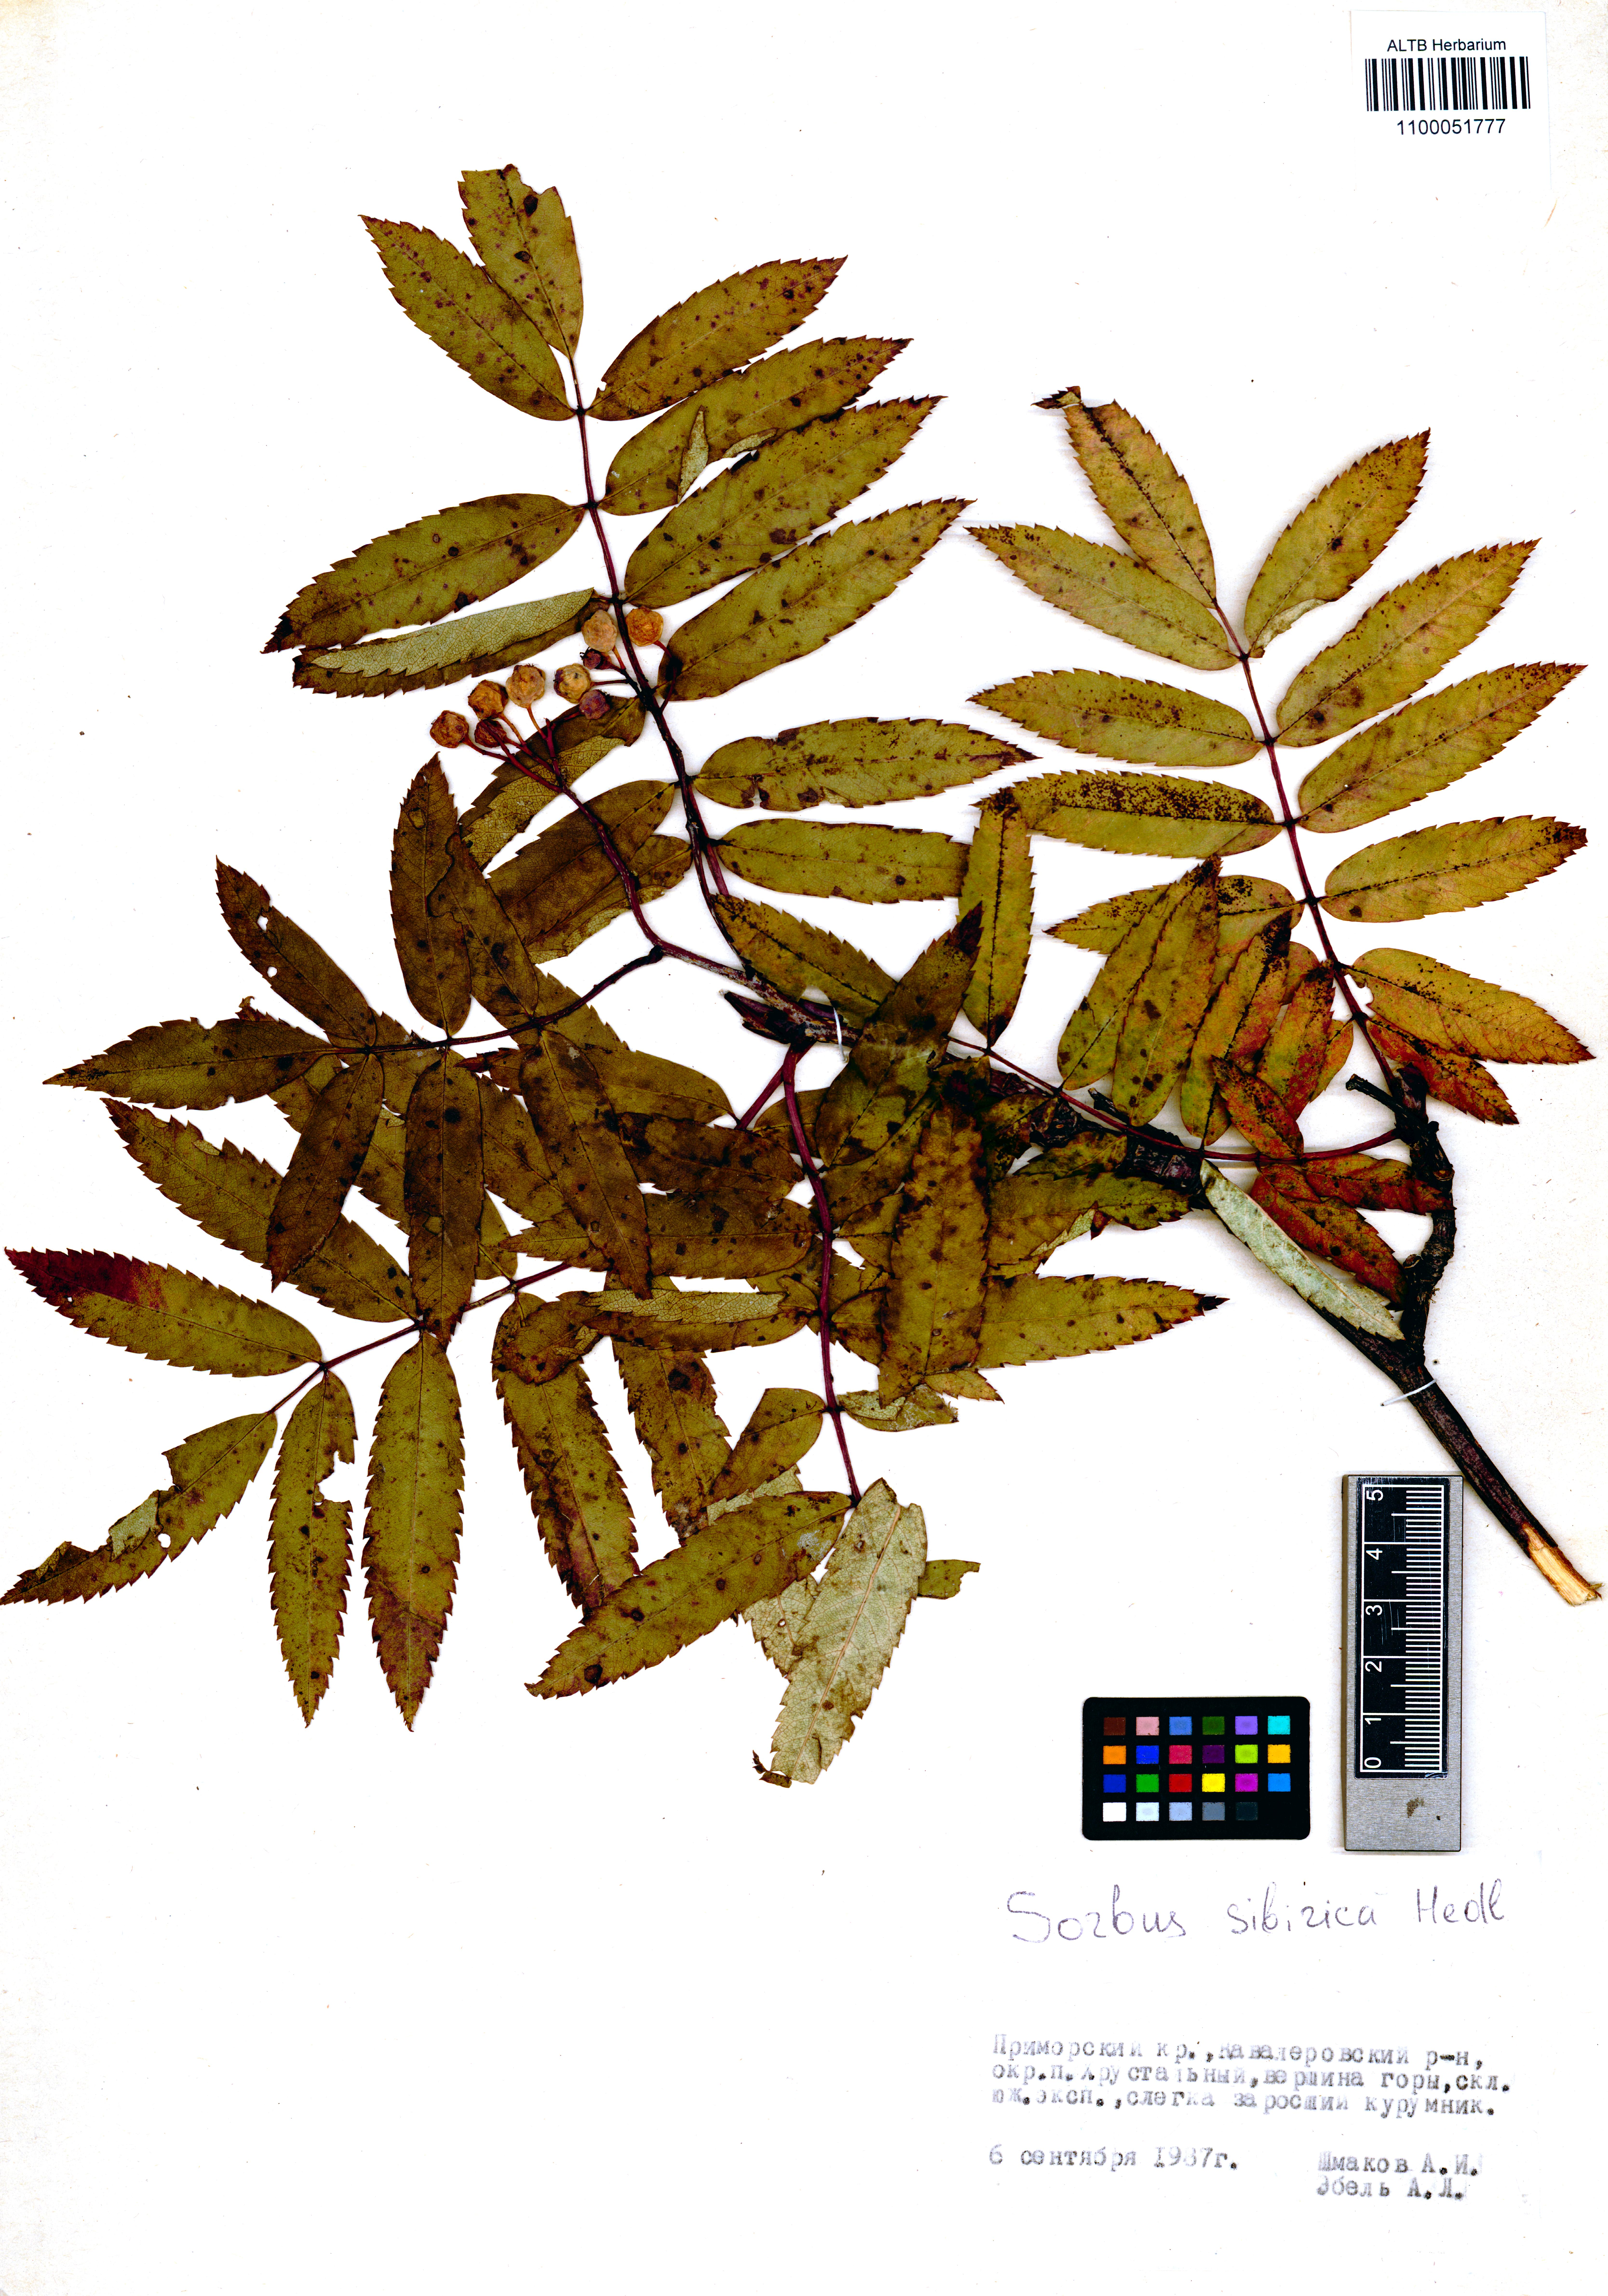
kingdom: Plantae
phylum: Tracheophyta
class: Magnoliopsida
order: Rosales
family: Rosaceae
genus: Sorbus
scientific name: Sorbus aucuparia
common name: Rowan
